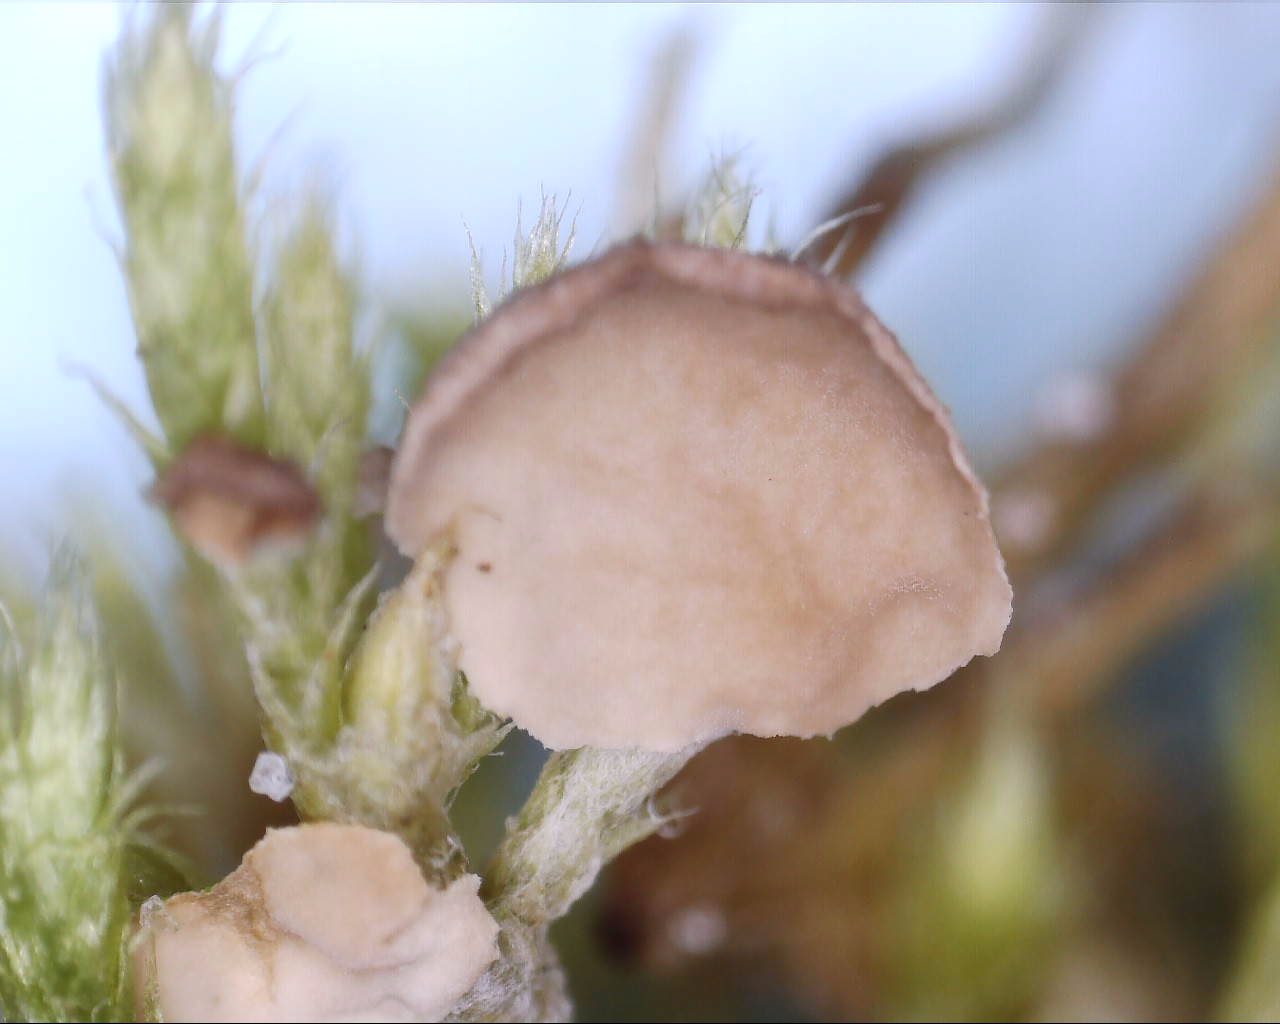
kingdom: Fungi
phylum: Basidiomycota
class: Agaricomycetes
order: Agaricales
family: Hygrophoraceae
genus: Arrhenia
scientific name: Arrhenia retiruga
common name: lille fontænehat
